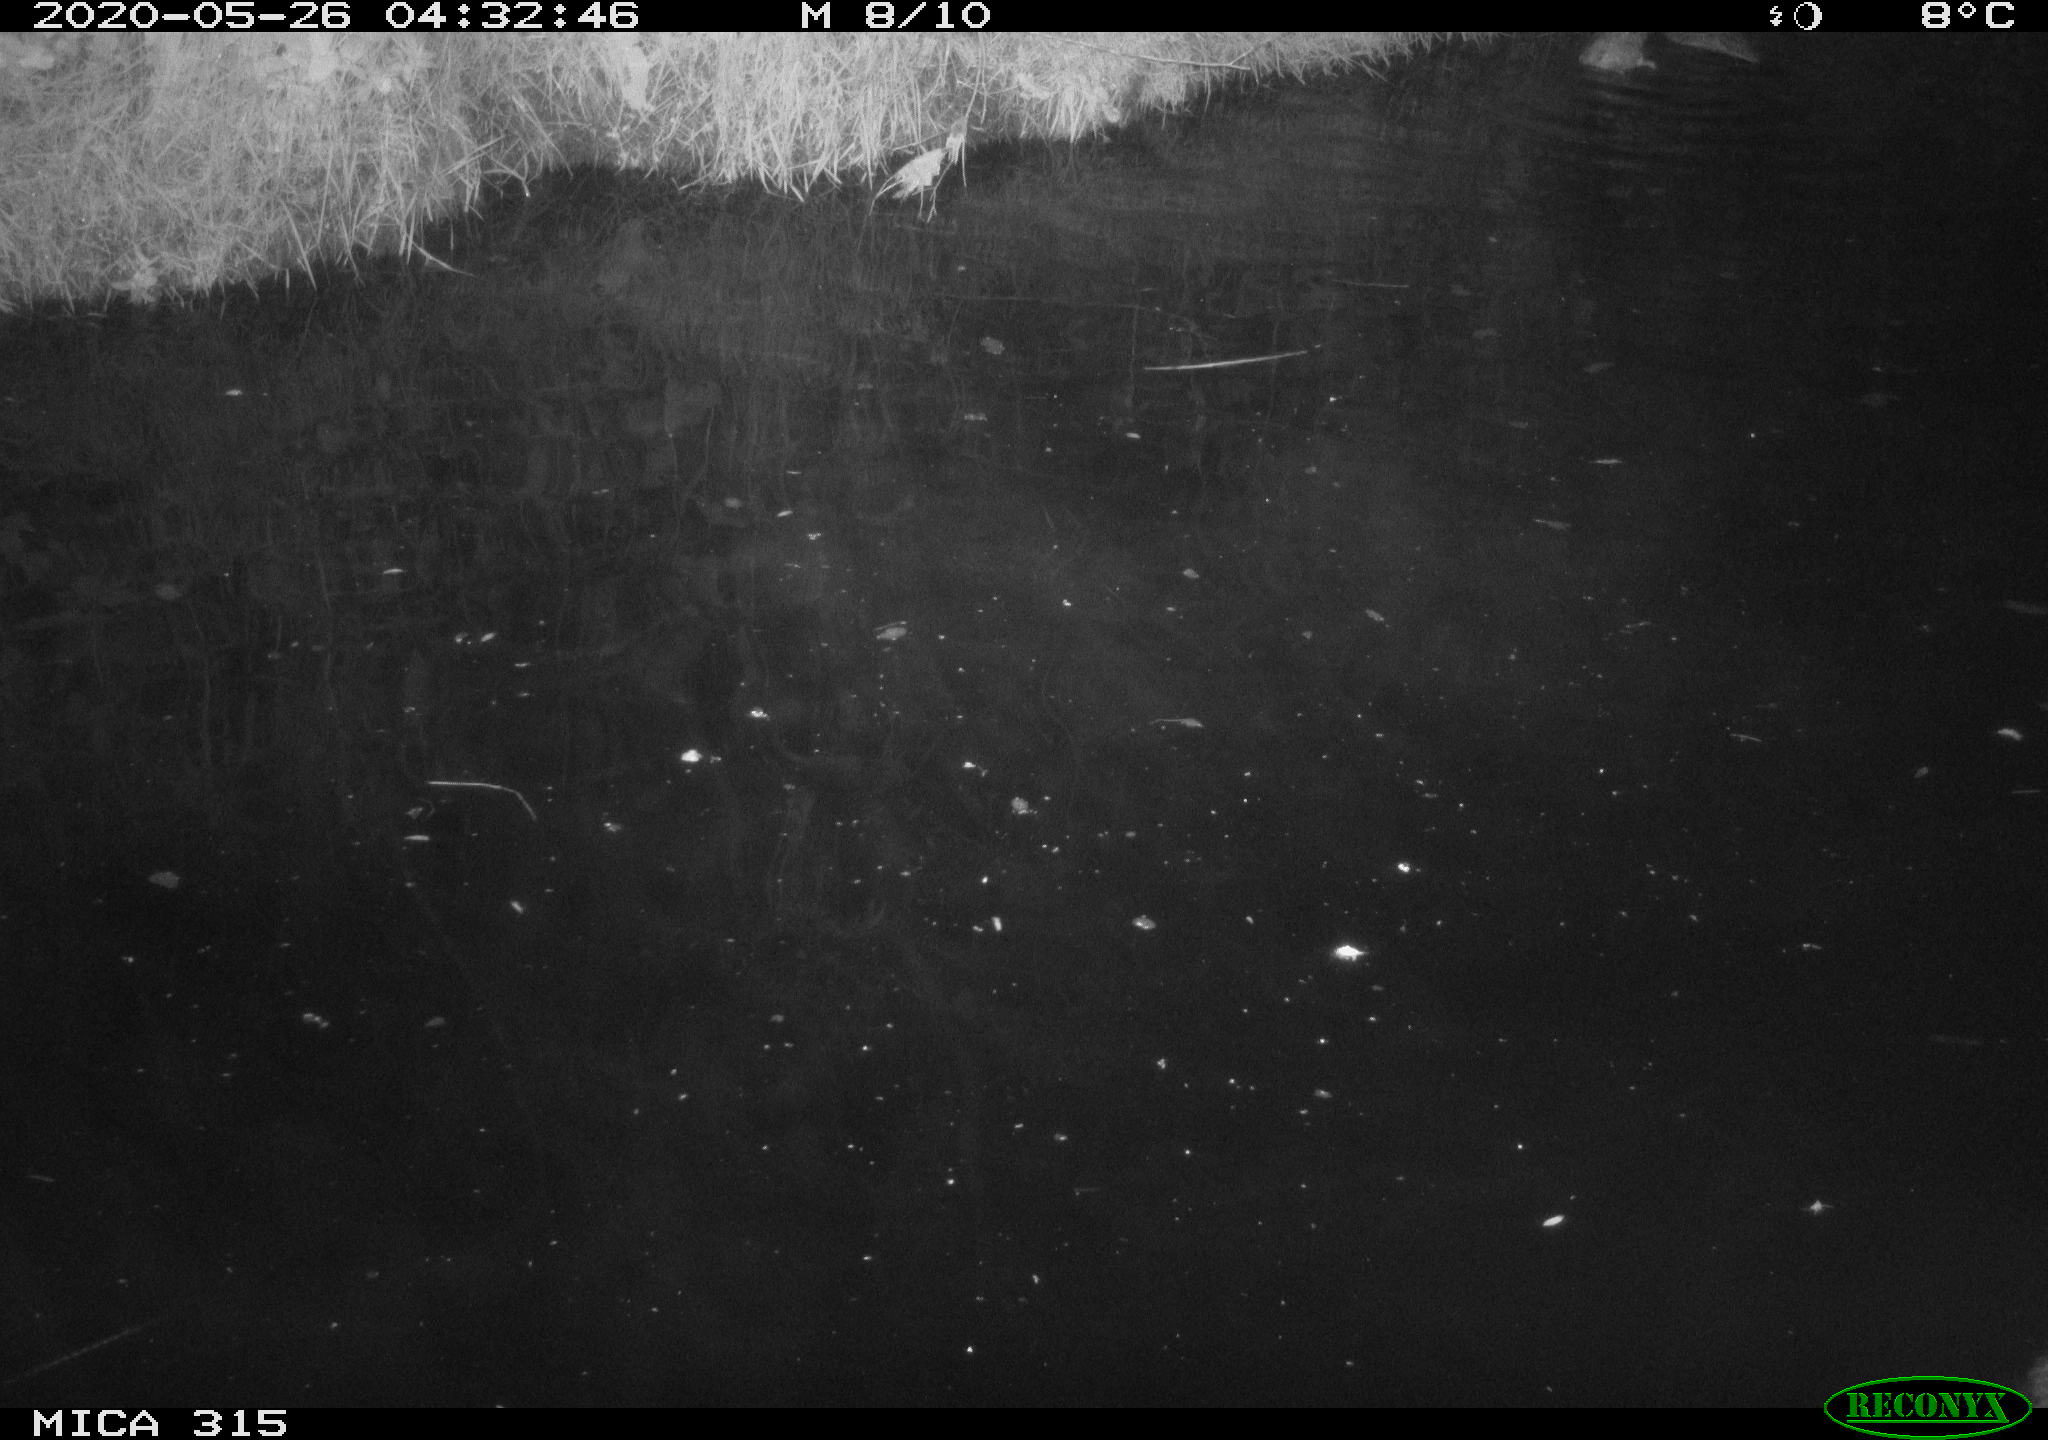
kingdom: Animalia
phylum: Chordata
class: Aves
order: Anseriformes
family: Anatidae
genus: Anas
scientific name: Anas platyrhynchos
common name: Mallard
